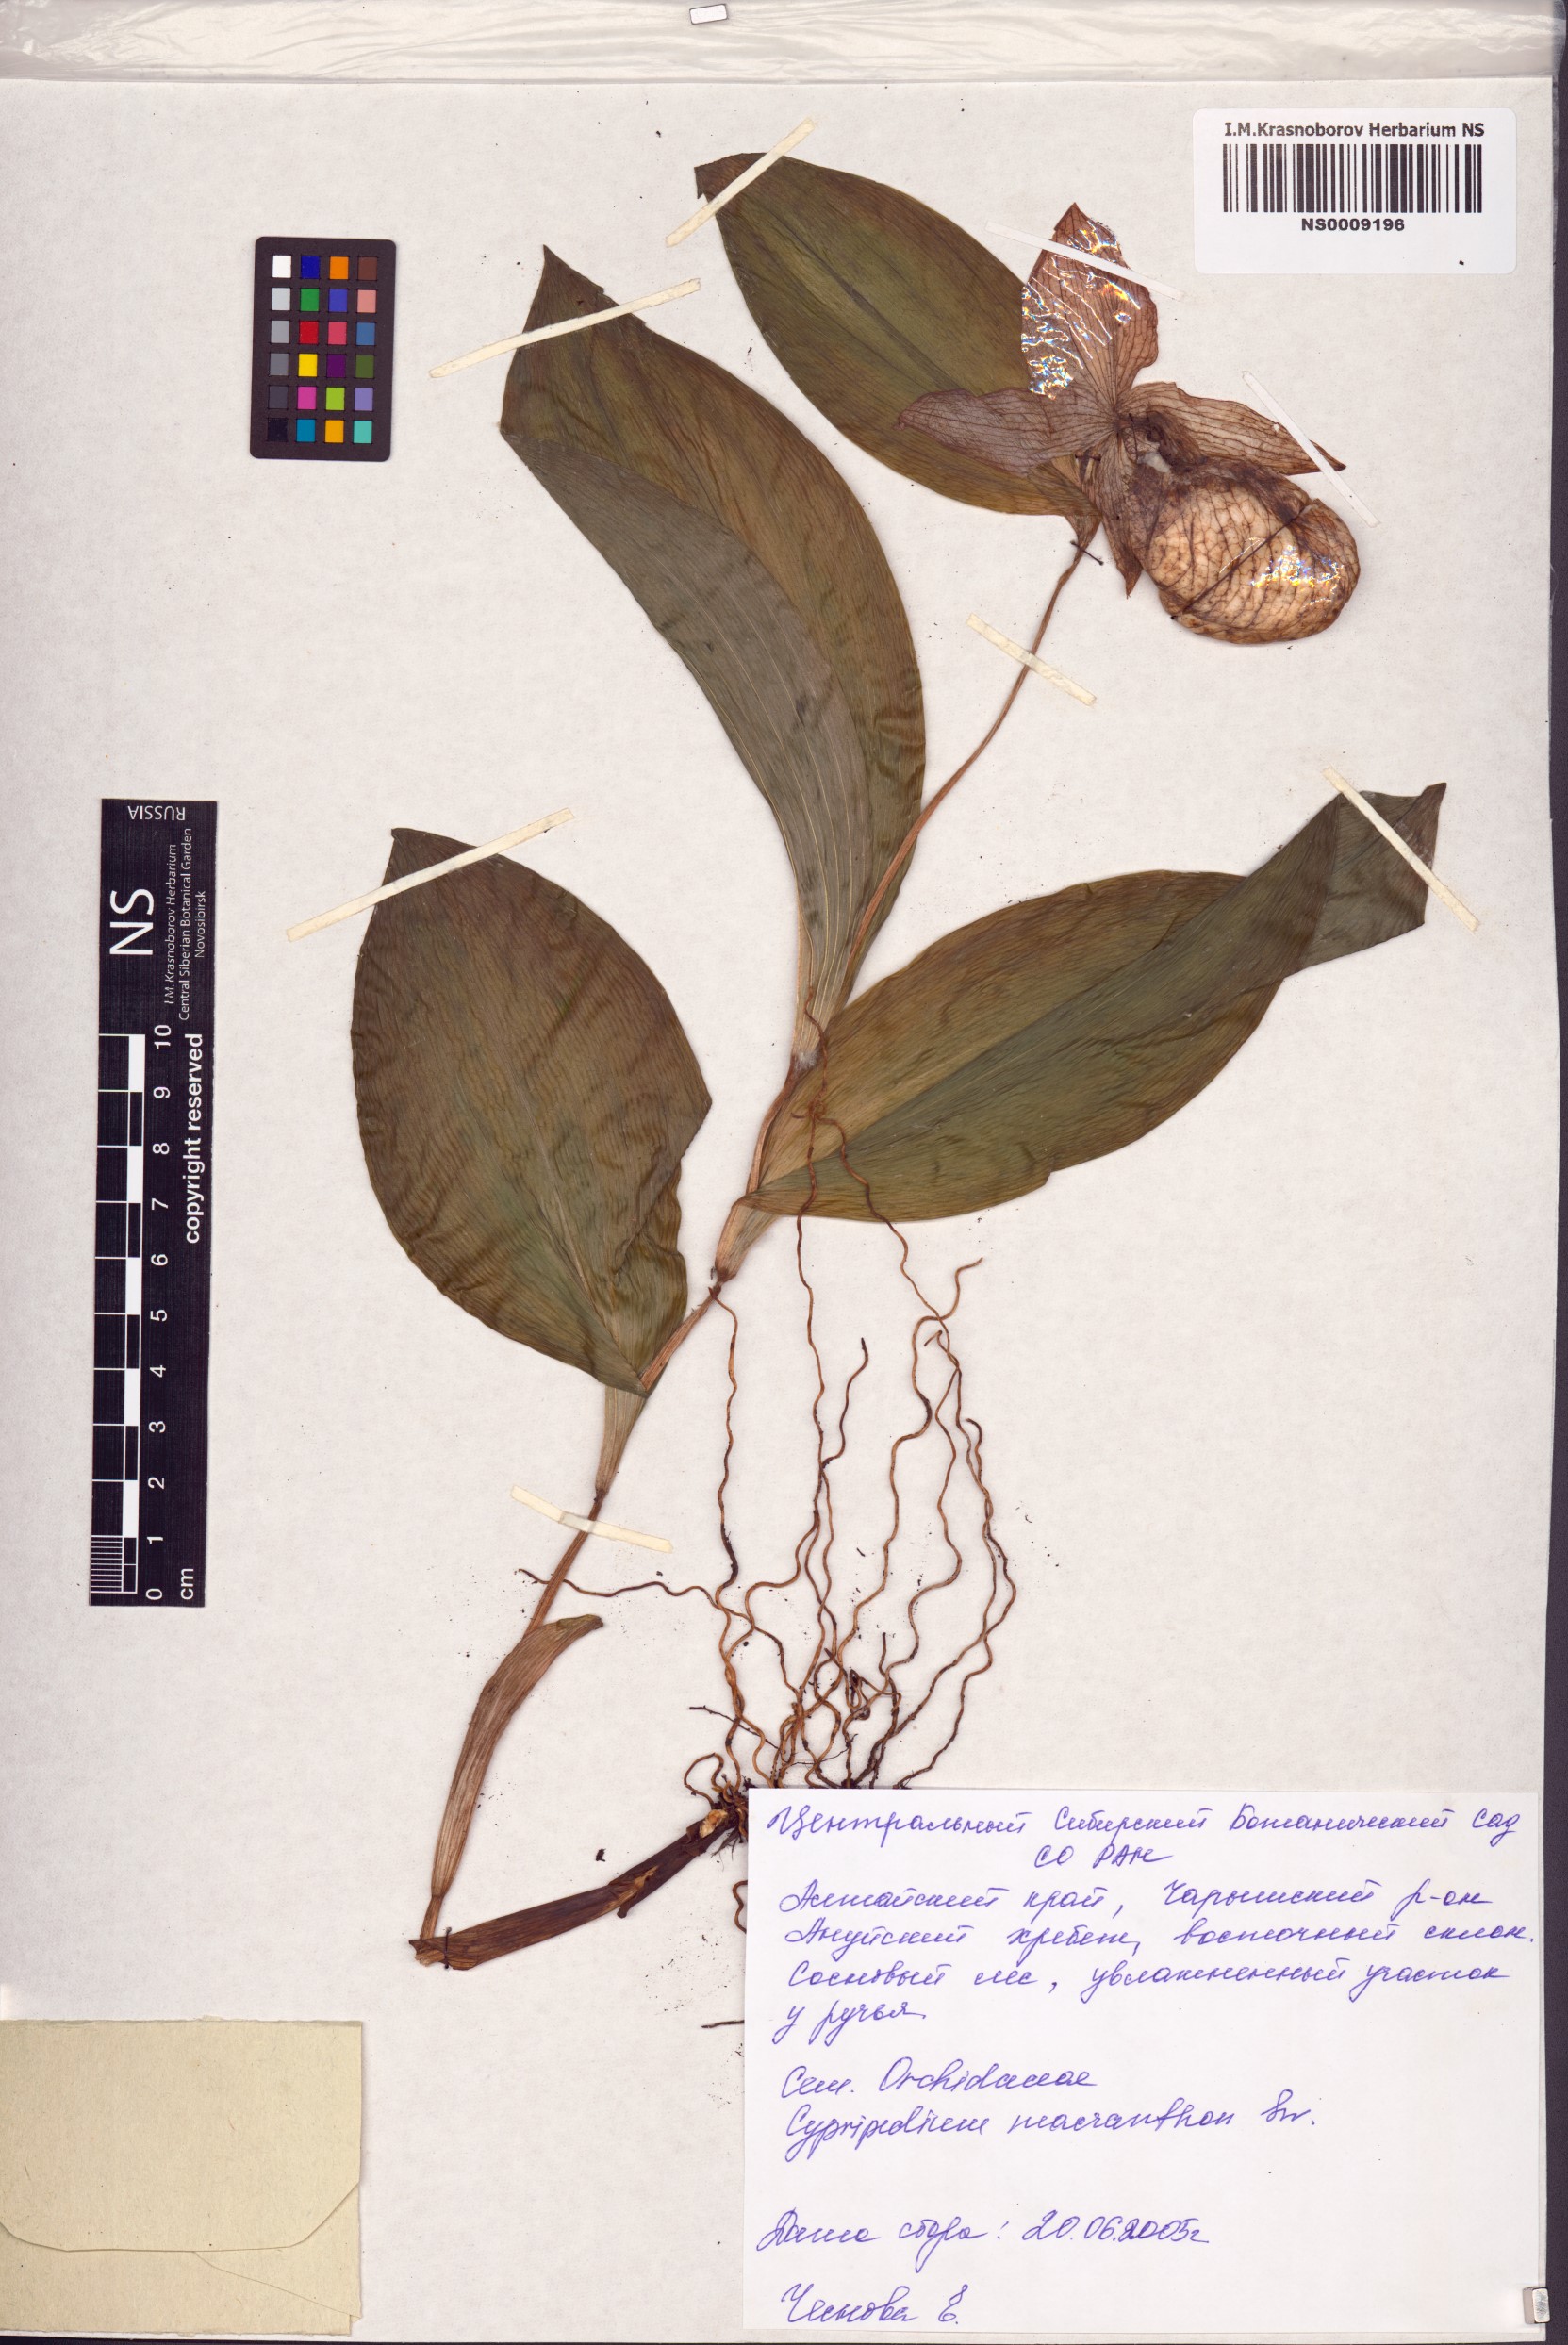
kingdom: Plantae
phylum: Tracheophyta
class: Liliopsida
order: Asparagales
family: Orchidaceae
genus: Cypripedium
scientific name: Cypripedium macranthos
